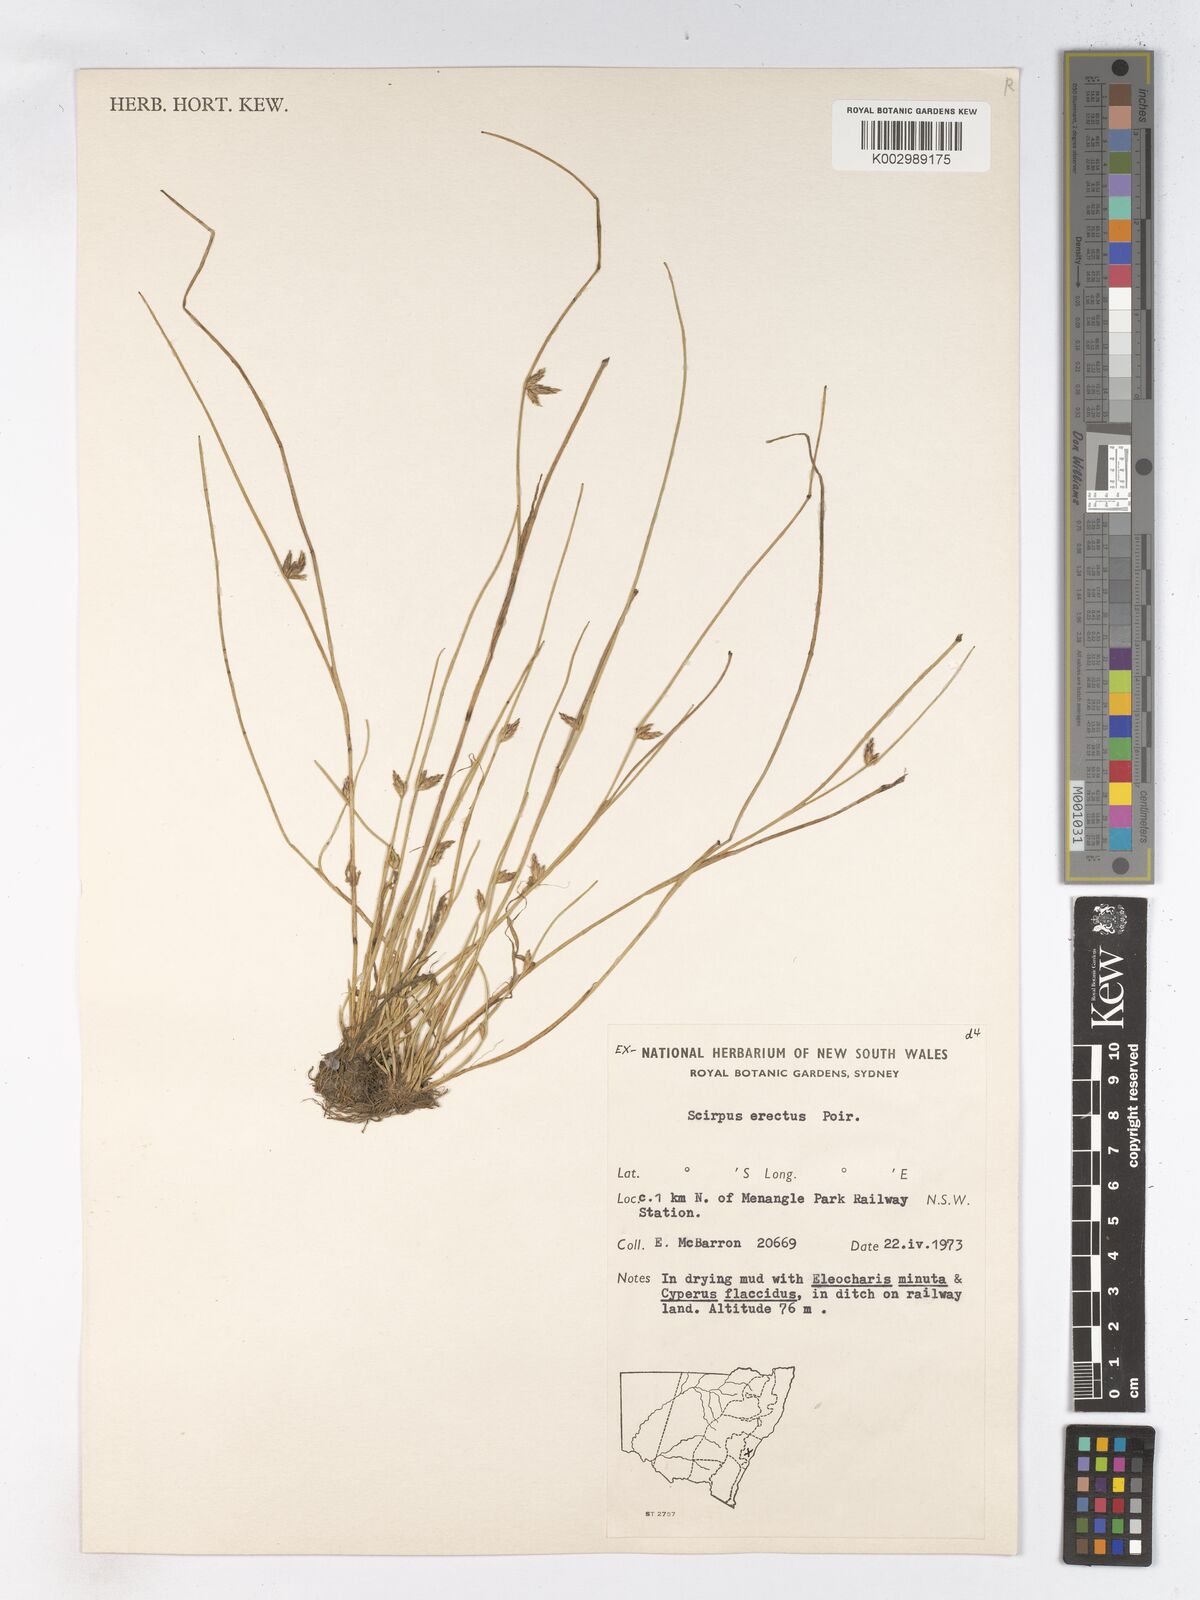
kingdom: Plantae
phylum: Tracheophyta
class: Liliopsida
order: Poales
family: Cyperaceae
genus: Schoenoplectiella
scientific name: Schoenoplectiella erecta
